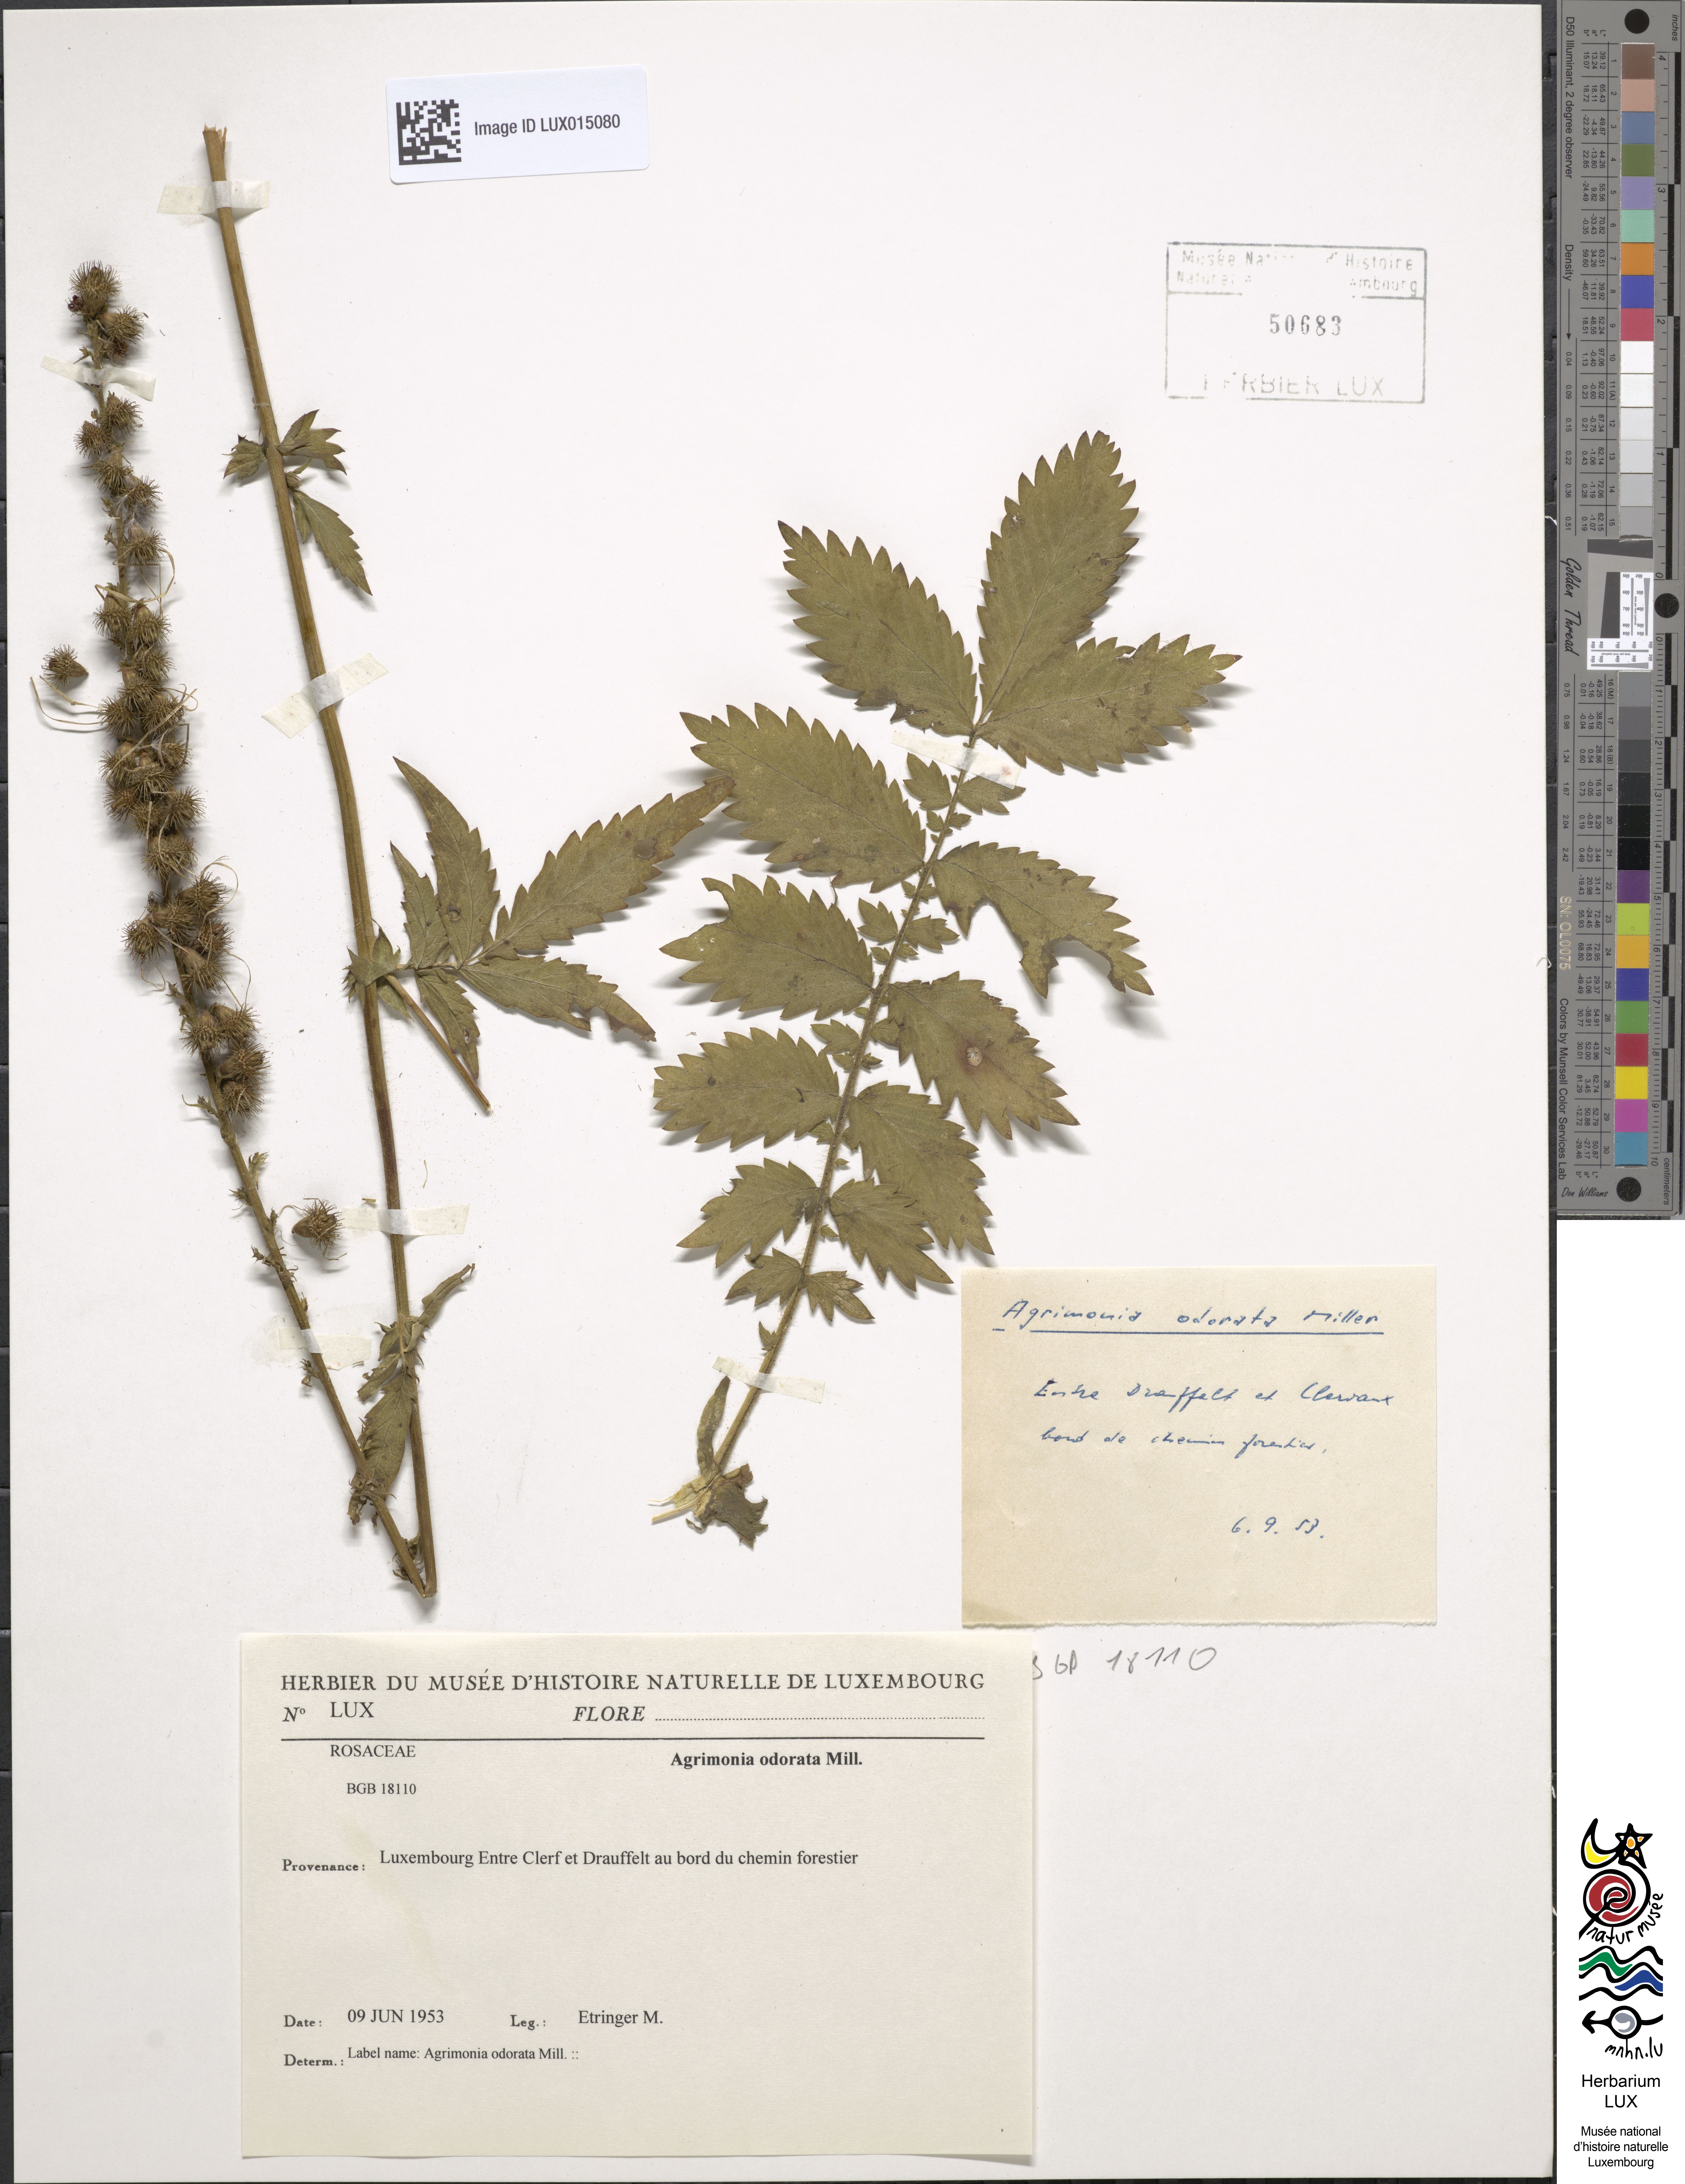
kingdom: Plantae
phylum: Tracheophyta
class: Magnoliopsida
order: Rosales
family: Rosaceae
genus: Agrimonia
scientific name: Agrimonia repens
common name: Creeping agrimony
